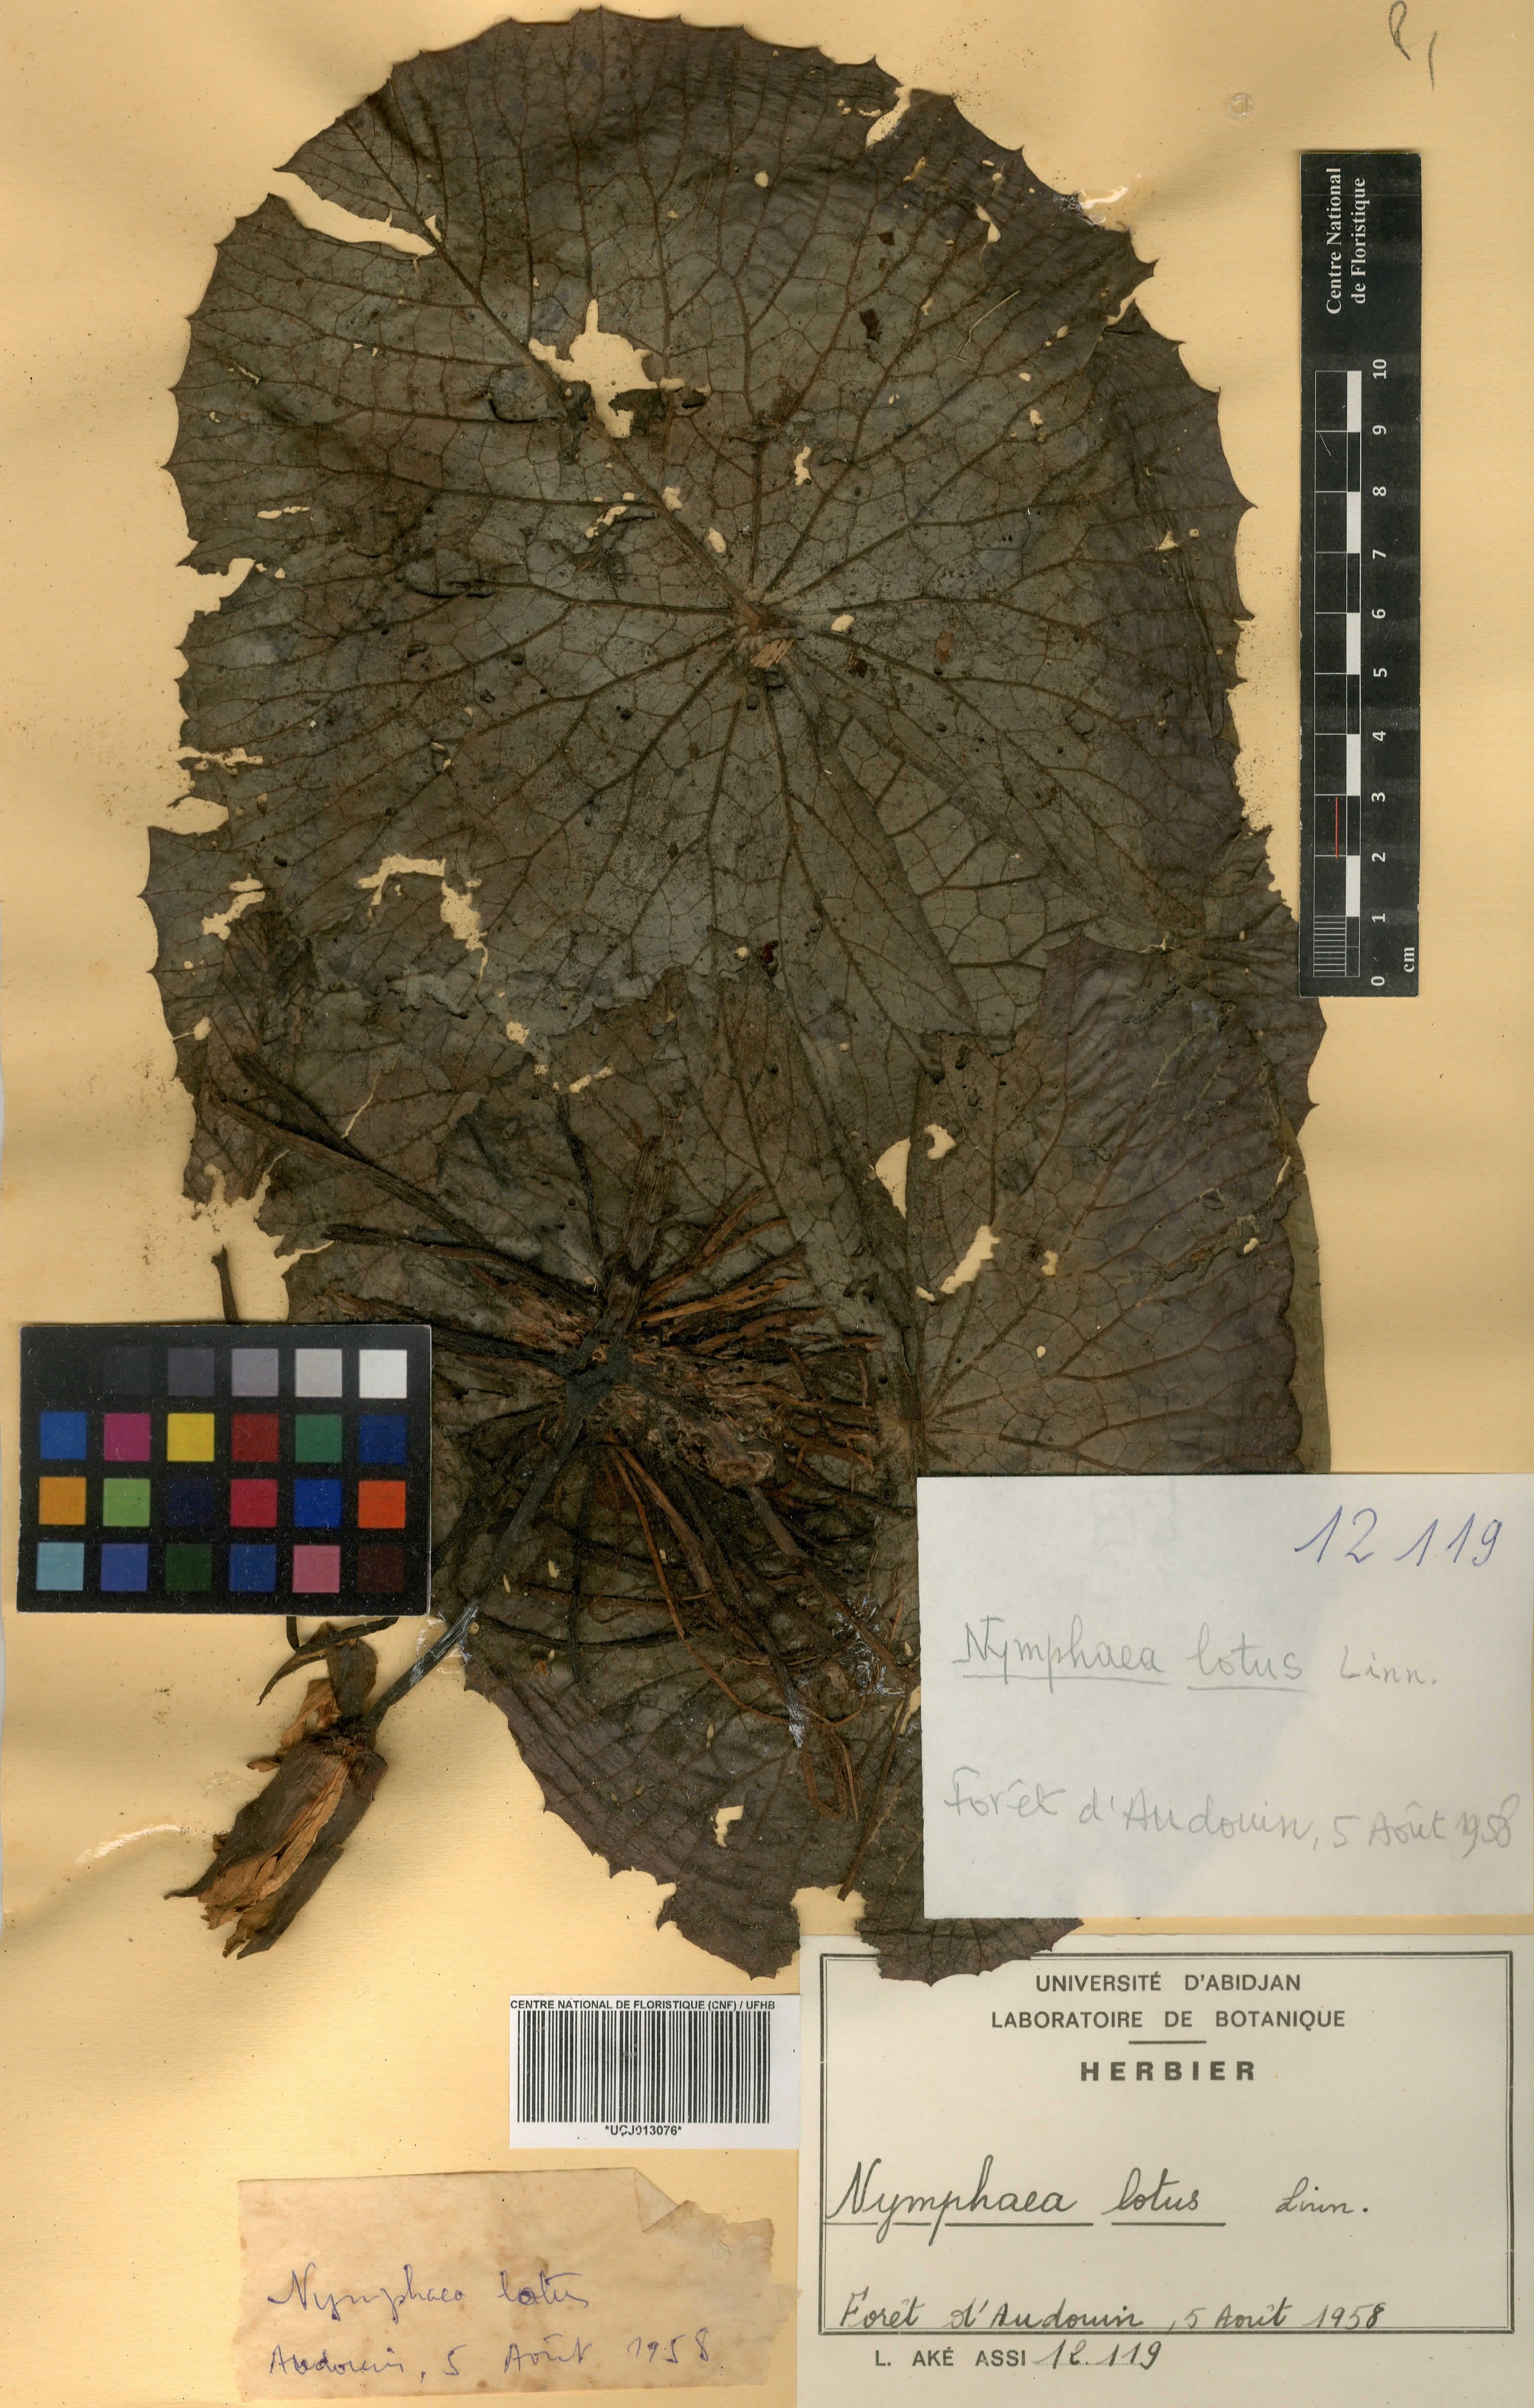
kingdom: Plantae
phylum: Tracheophyta
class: Magnoliopsida
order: Nymphaeales
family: Nymphaeaceae
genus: Nymphaea
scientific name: Nymphaea lotus
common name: White egyptian lotus
